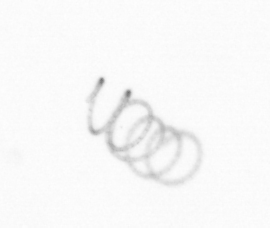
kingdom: Chromista
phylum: Ochrophyta
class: Bacillariophyceae
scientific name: Bacillariophyceae
